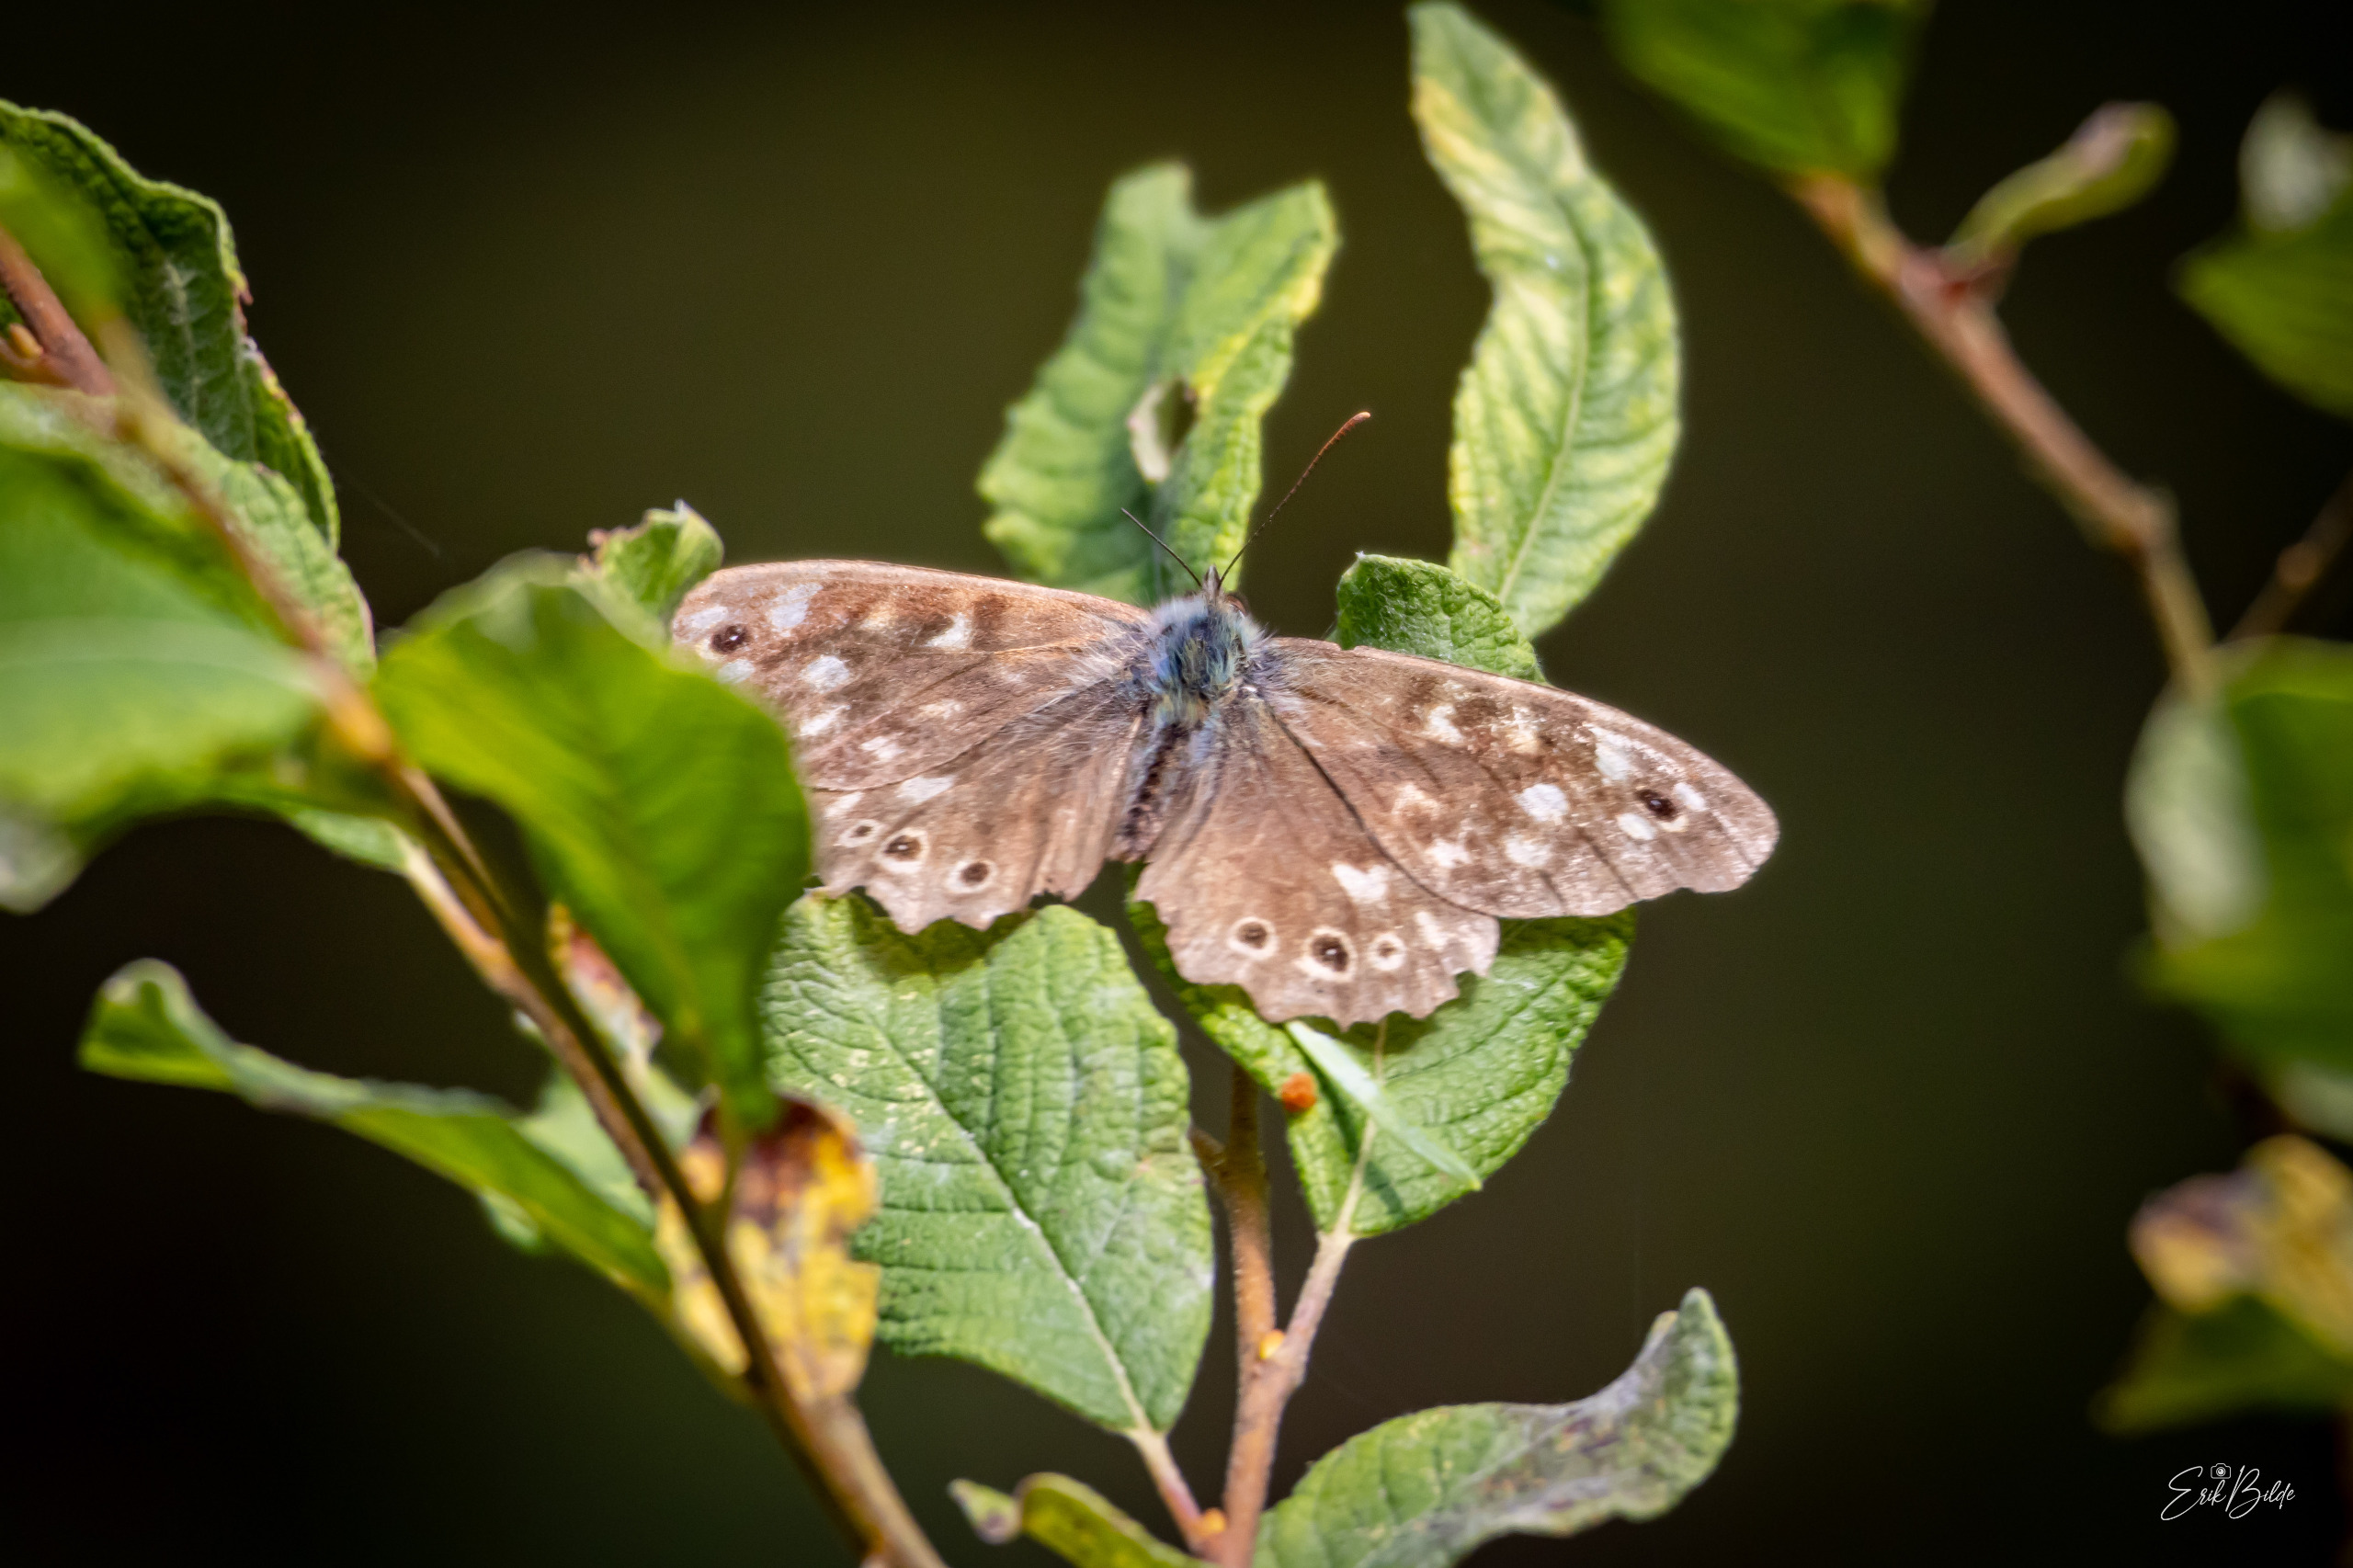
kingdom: Animalia
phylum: Arthropoda
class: Insecta
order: Lepidoptera
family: Nymphalidae
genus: Pararge
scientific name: Pararge aegeria
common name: Skovrandøje
